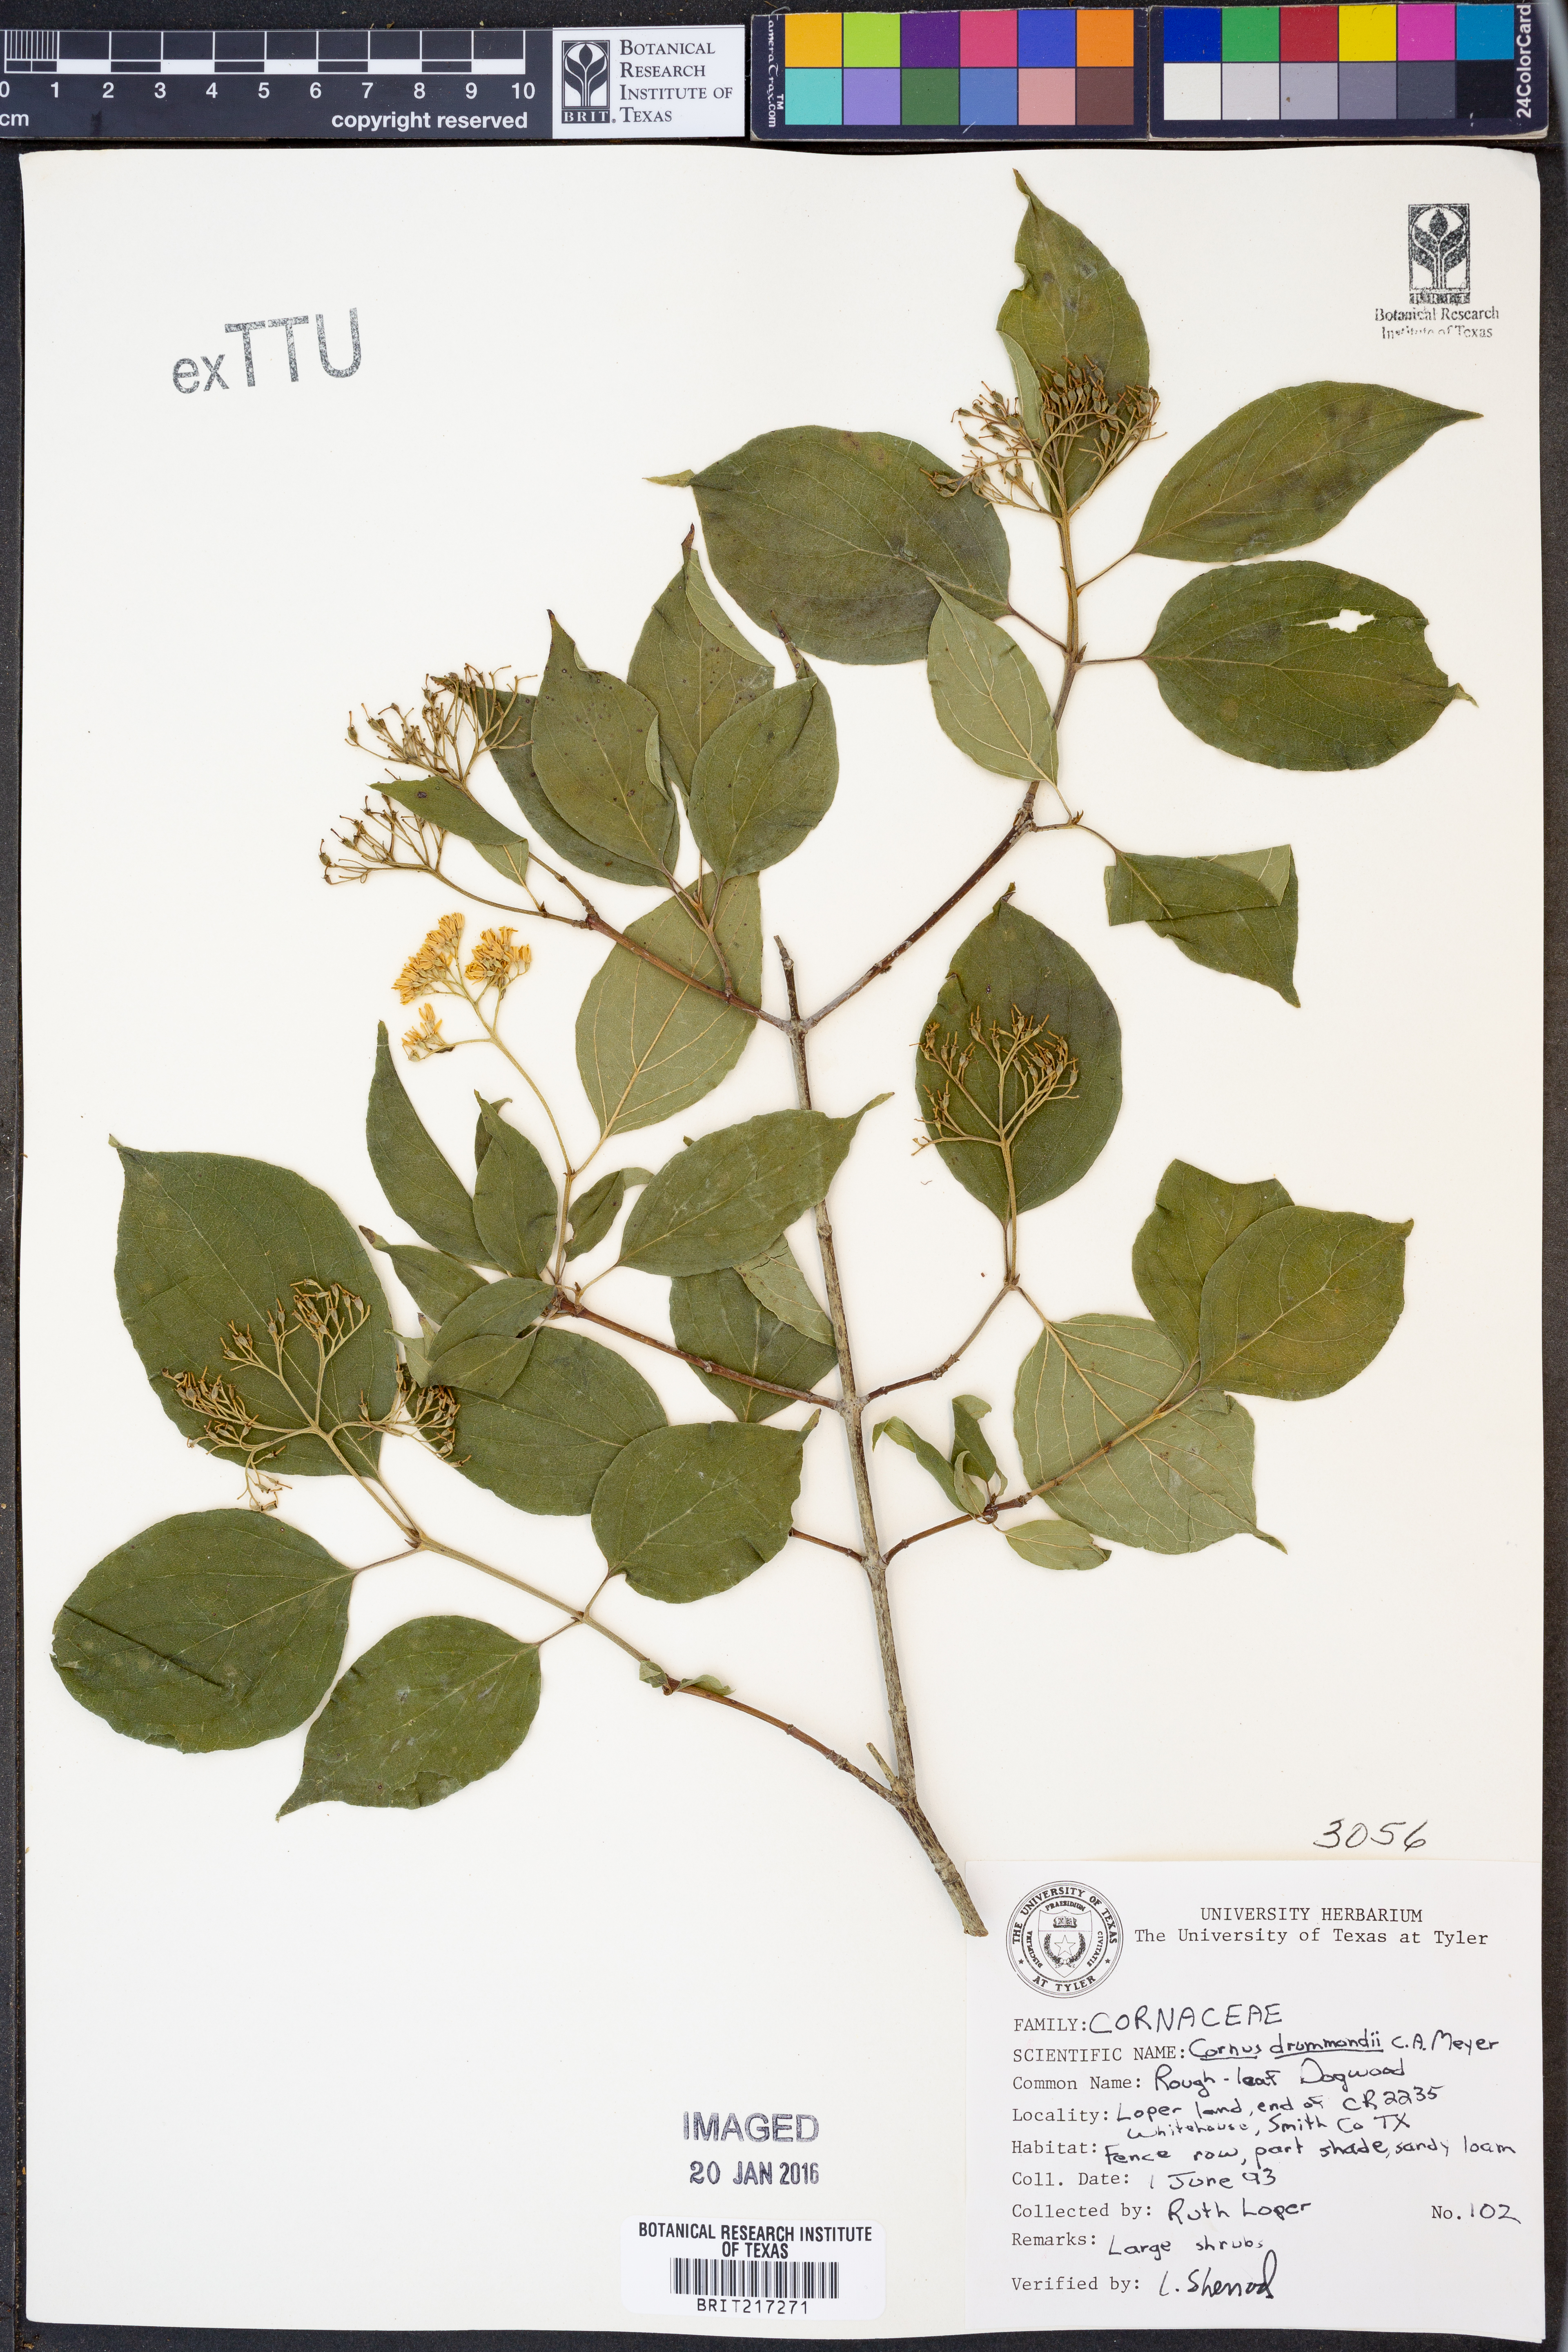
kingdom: Plantae
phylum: Tracheophyta
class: Magnoliopsida
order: Cornales
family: Cornaceae
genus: Cornus
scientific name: Cornus drummondii
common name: Rough-leaf dogwood
